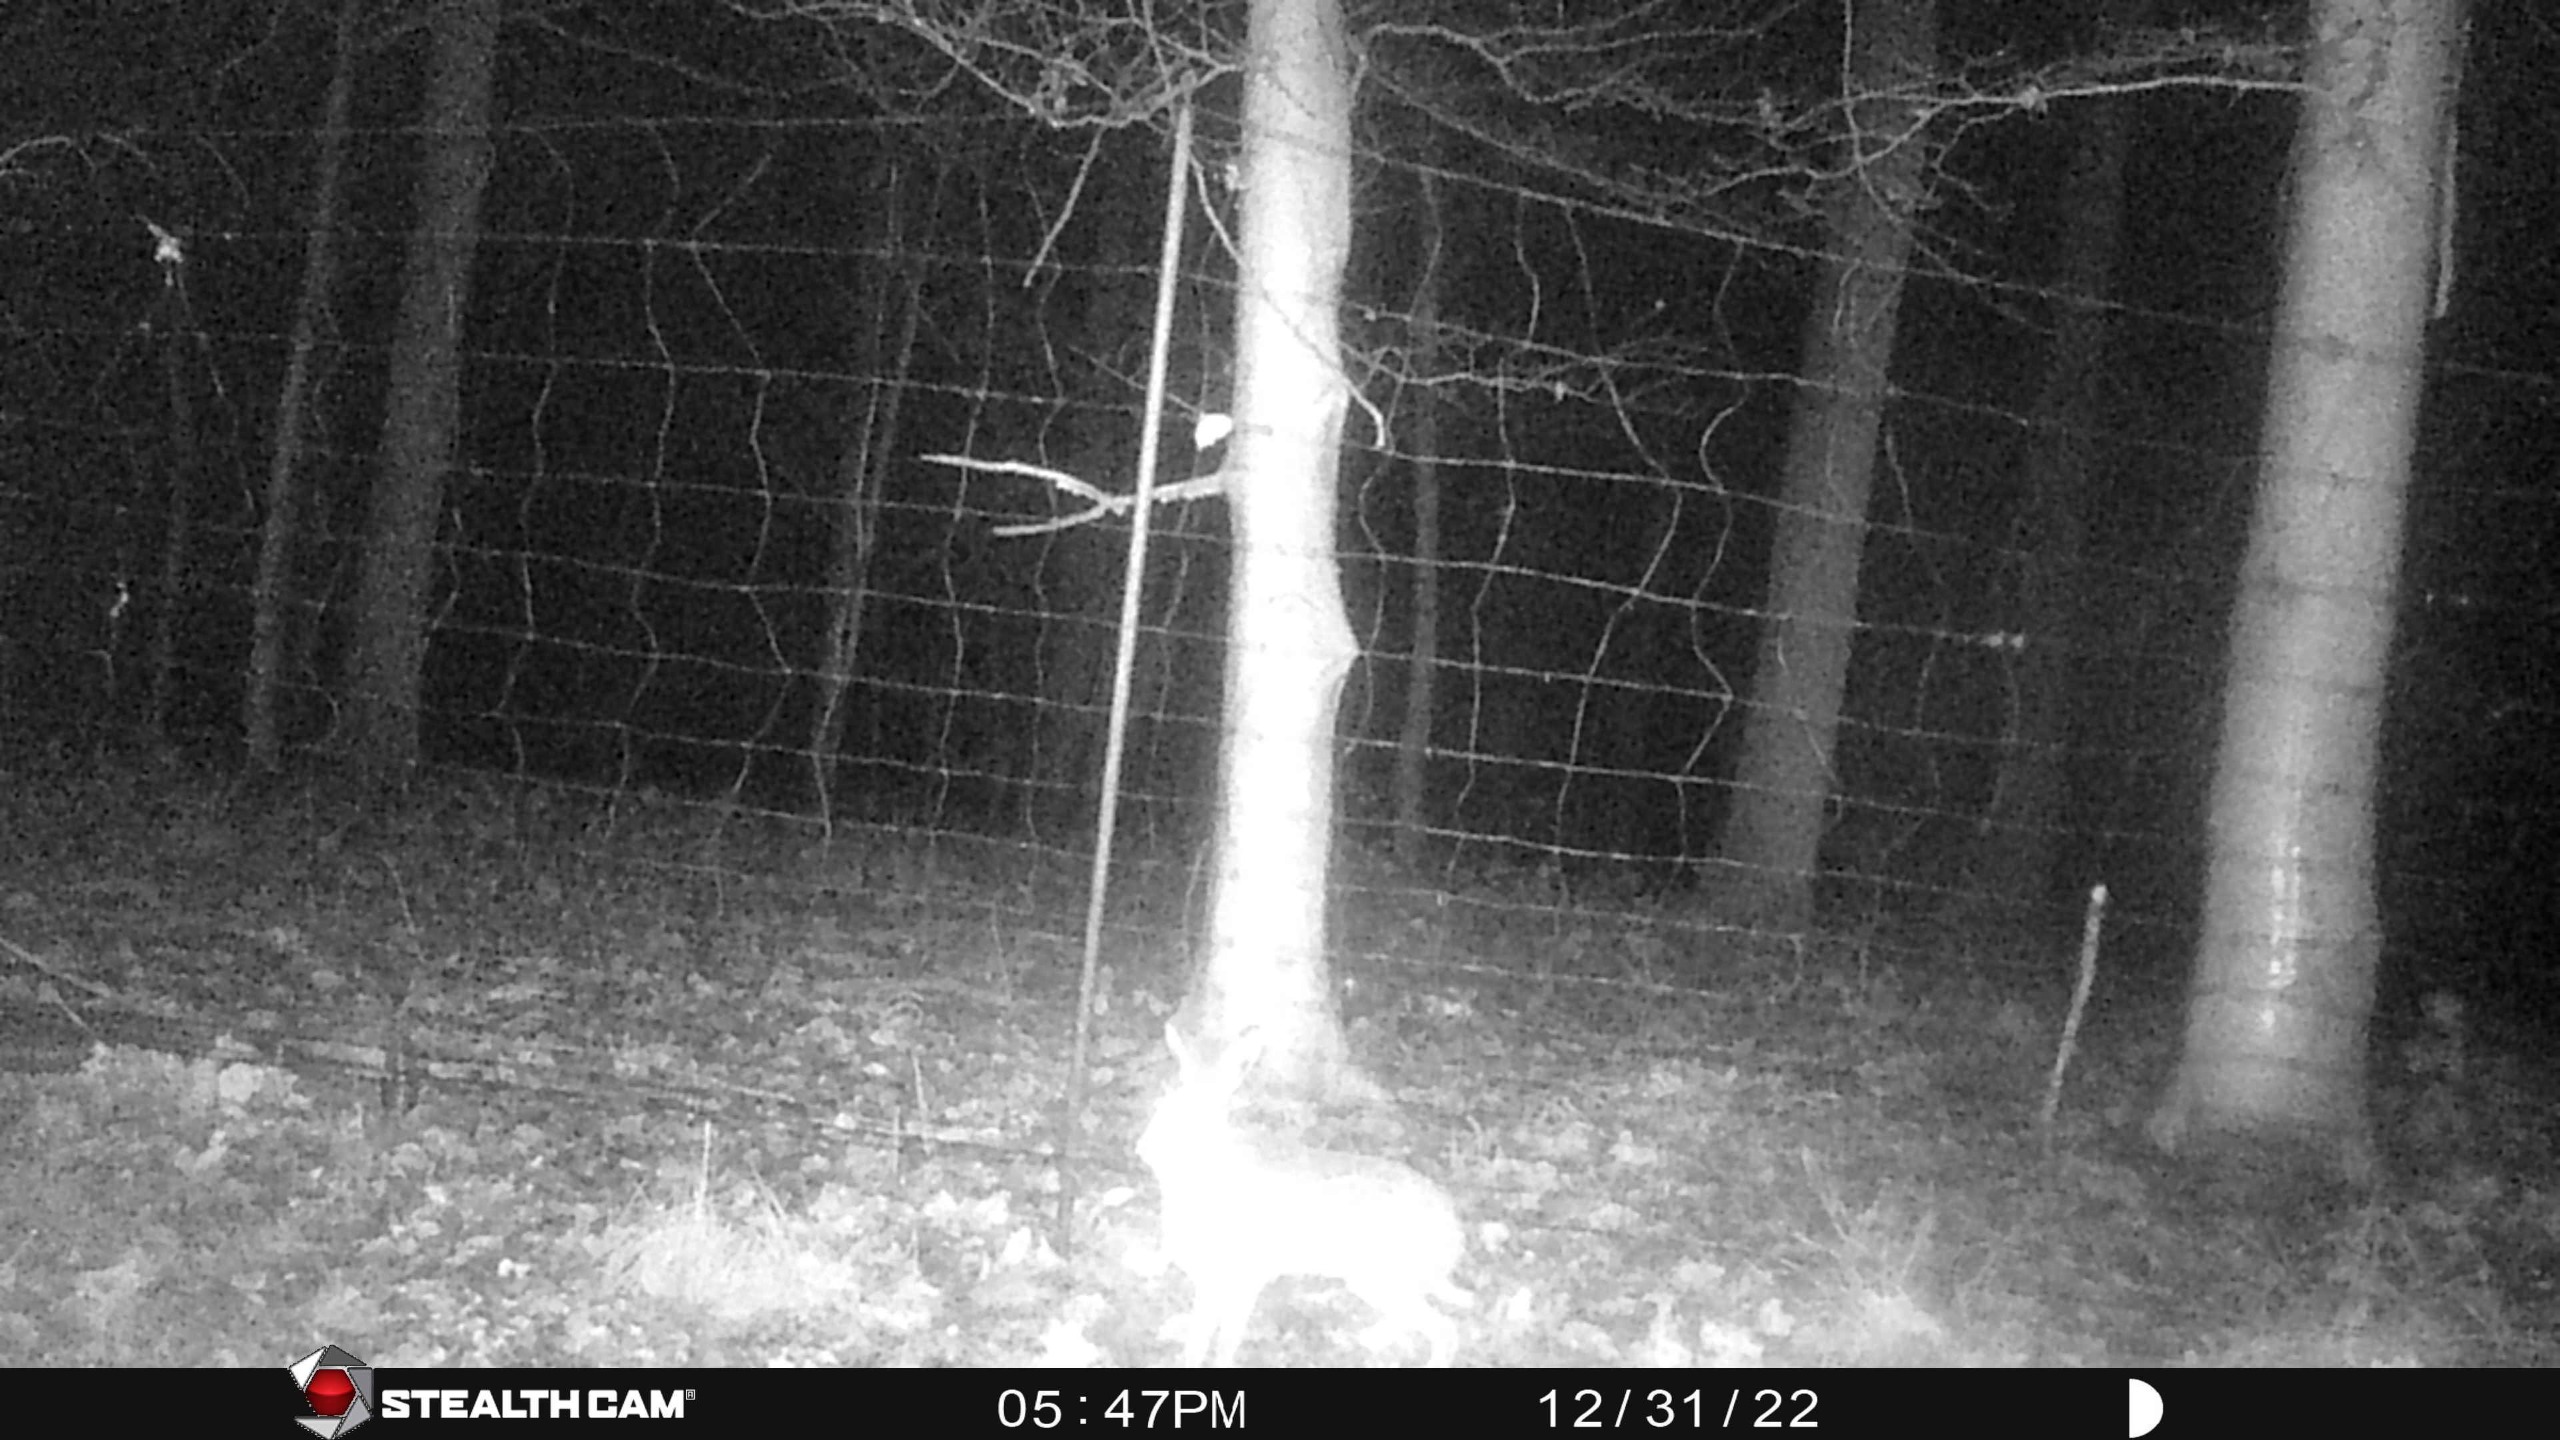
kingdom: Animalia
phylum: Chordata
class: Mammalia
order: Lagomorpha
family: Leporidae
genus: Lepus
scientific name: Lepus europaeus
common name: Hare
